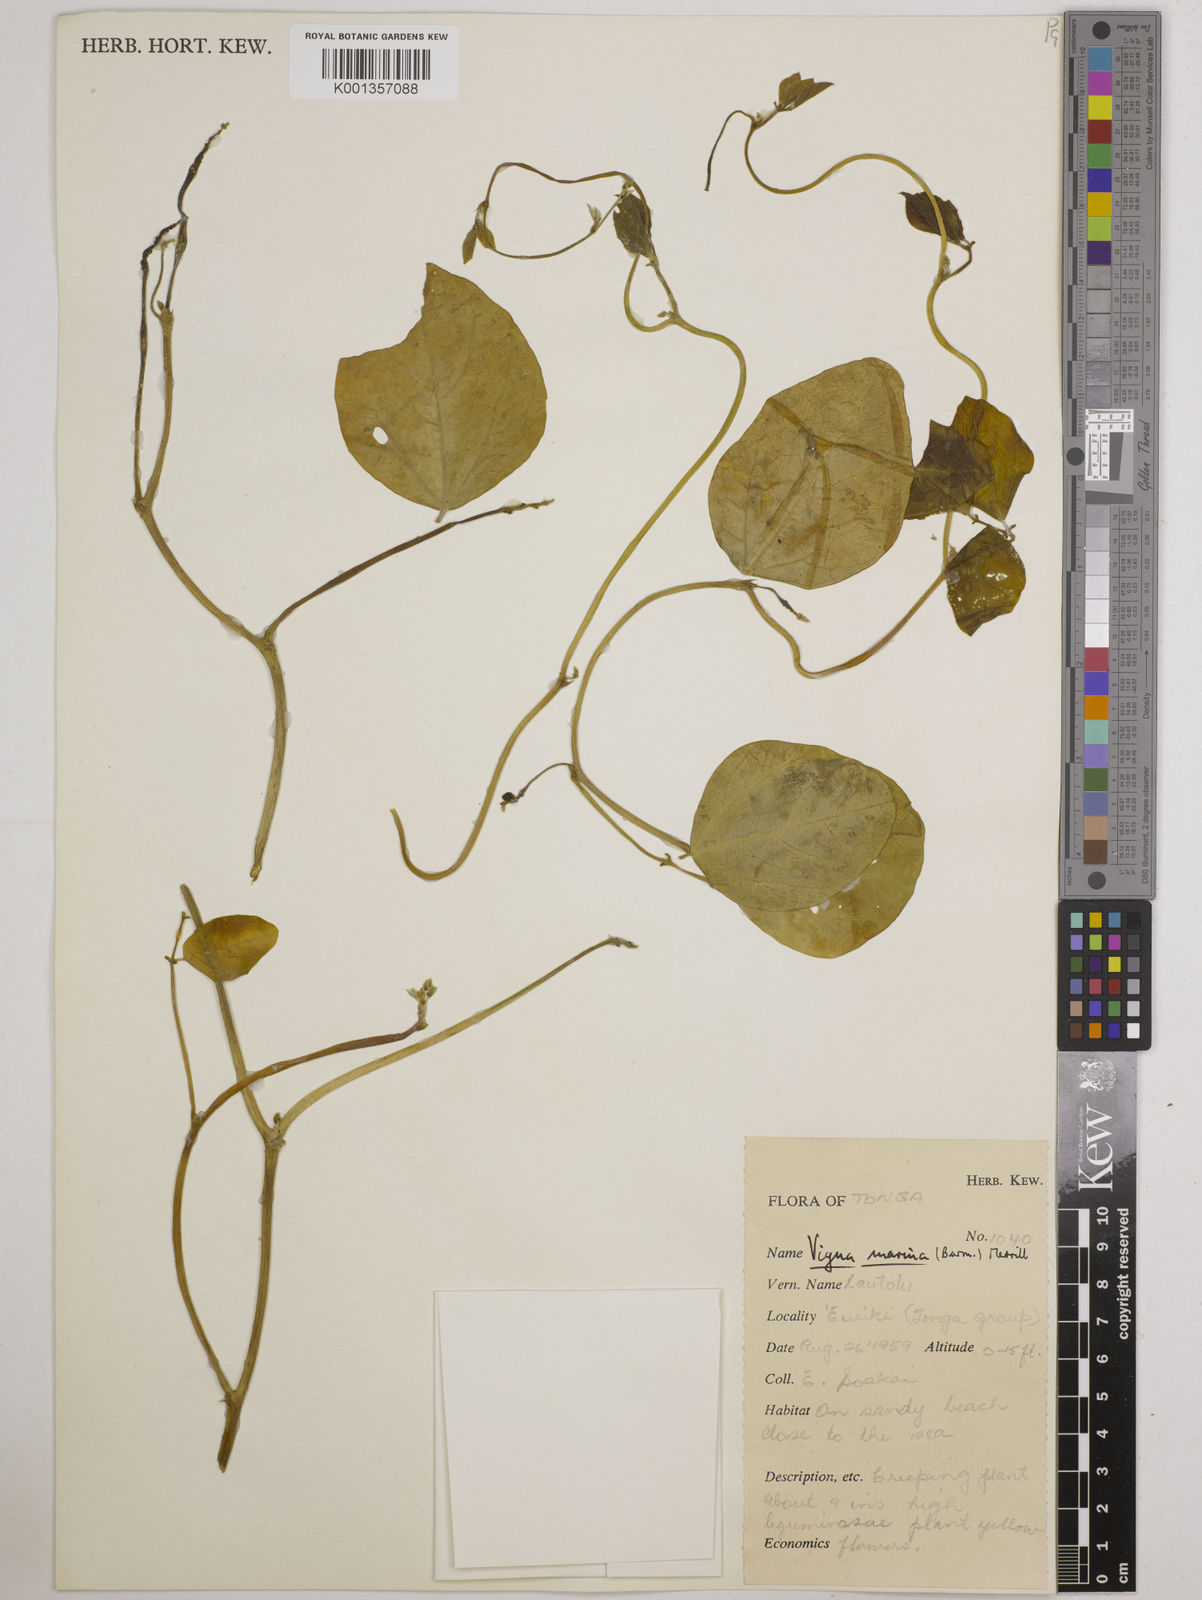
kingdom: Plantae
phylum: Tracheophyta
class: Magnoliopsida
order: Fabales
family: Fabaceae
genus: Vigna
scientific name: Vigna marina
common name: Dune-bean
